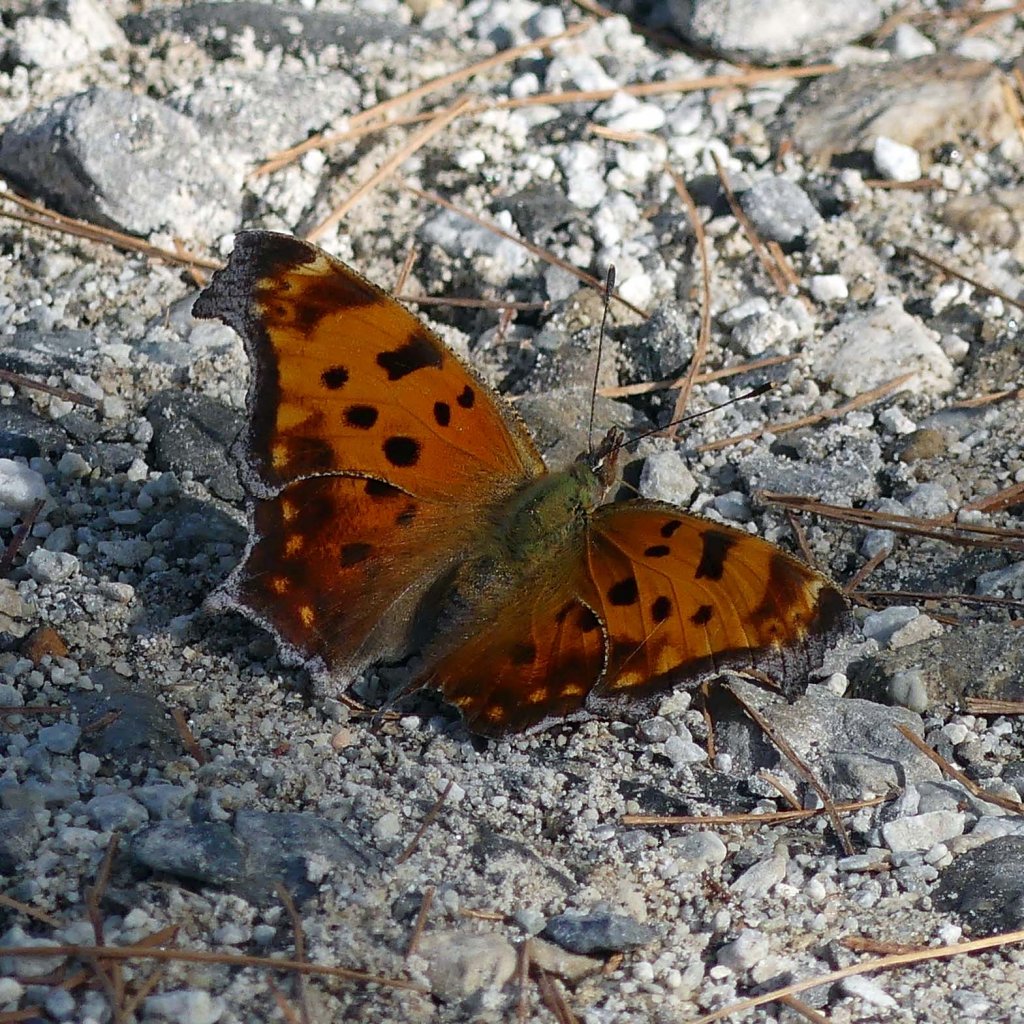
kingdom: Animalia
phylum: Arthropoda
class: Insecta
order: Lepidoptera
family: Nymphalidae
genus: Polygonia
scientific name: Polygonia comma
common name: Eastern Comma
